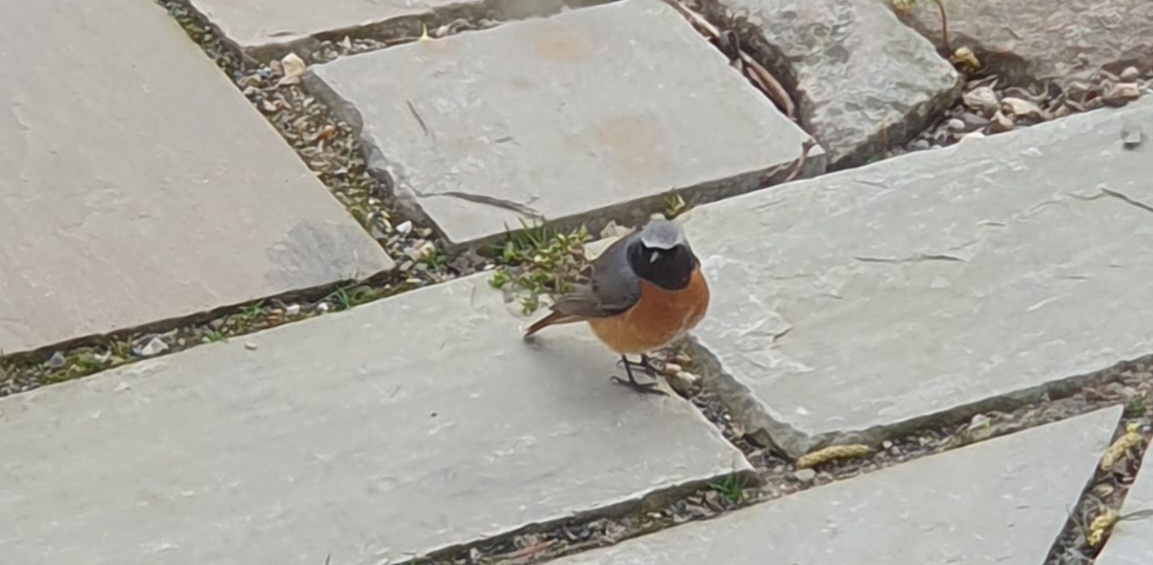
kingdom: Animalia
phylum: Chordata
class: Aves
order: Passeriformes
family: Muscicapidae
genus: Phoenicurus
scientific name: Phoenicurus phoenicurus
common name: Rødstjert
